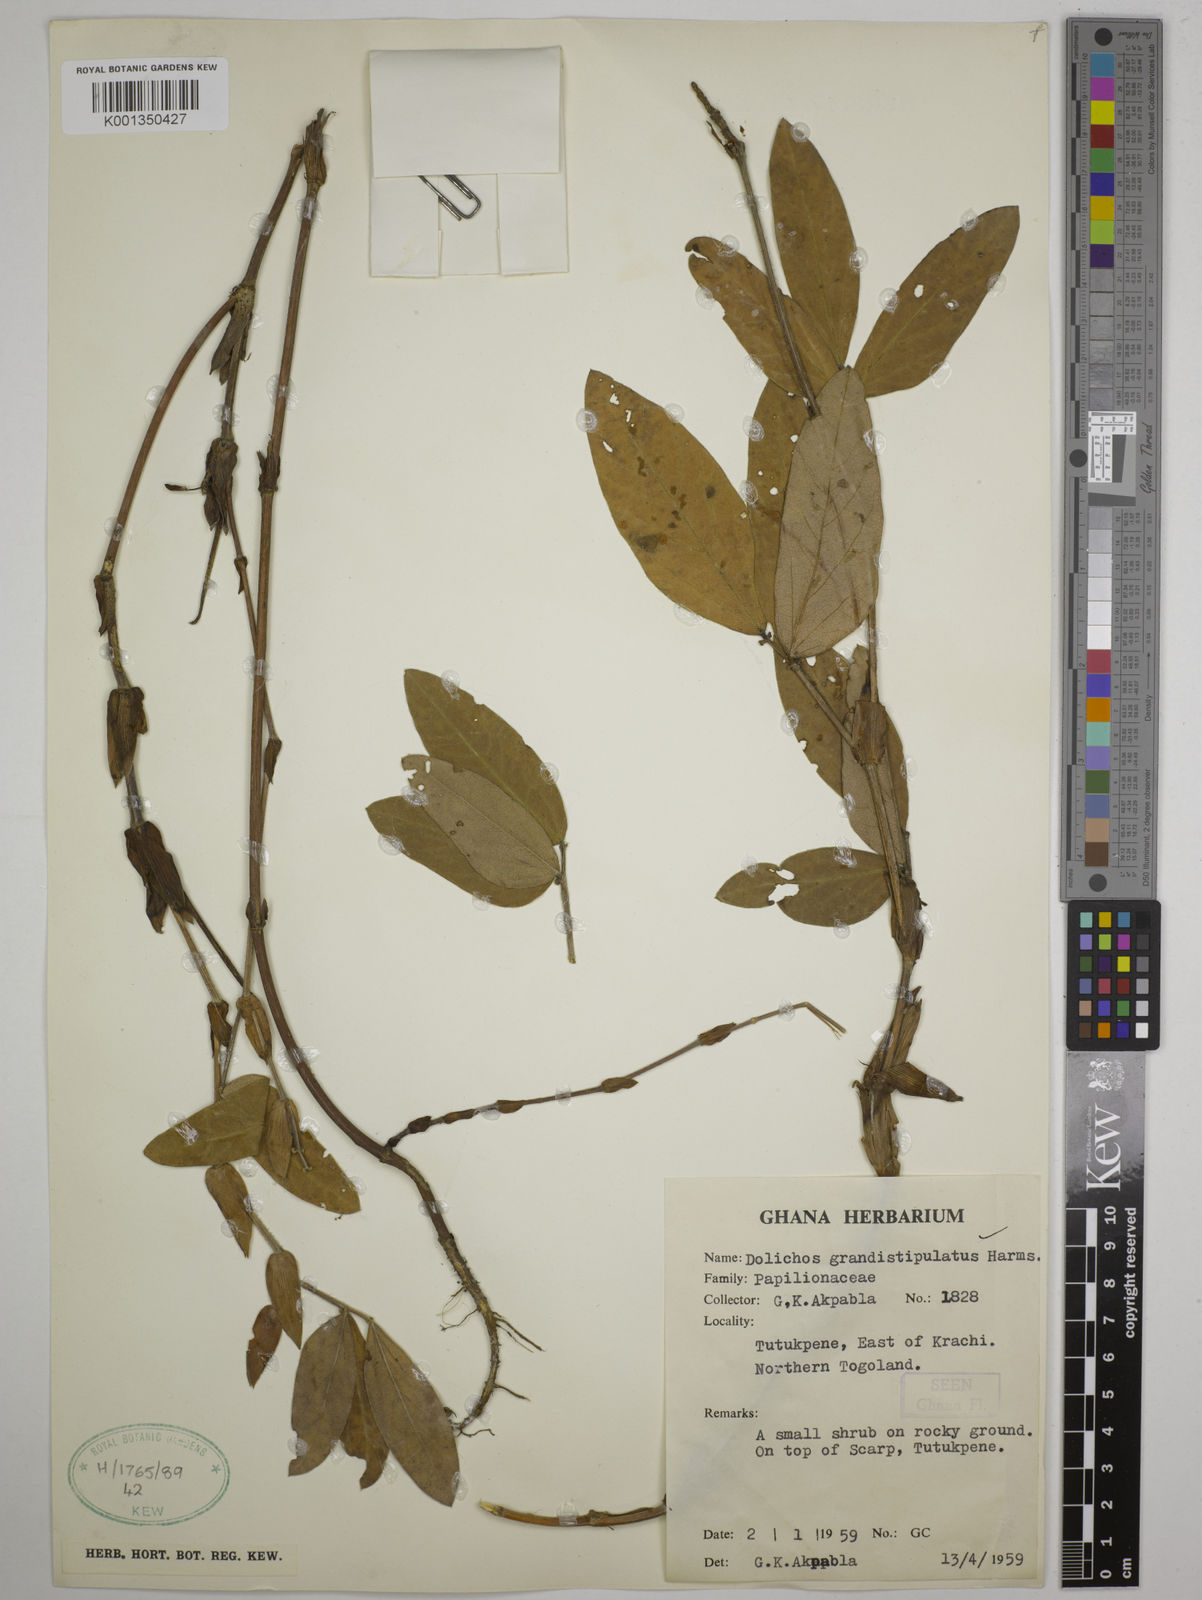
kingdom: Plantae
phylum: Tracheophyta
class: Magnoliopsida
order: Fabales
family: Fabaceae
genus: Dolichos
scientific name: Dolichos grandistipulatus
